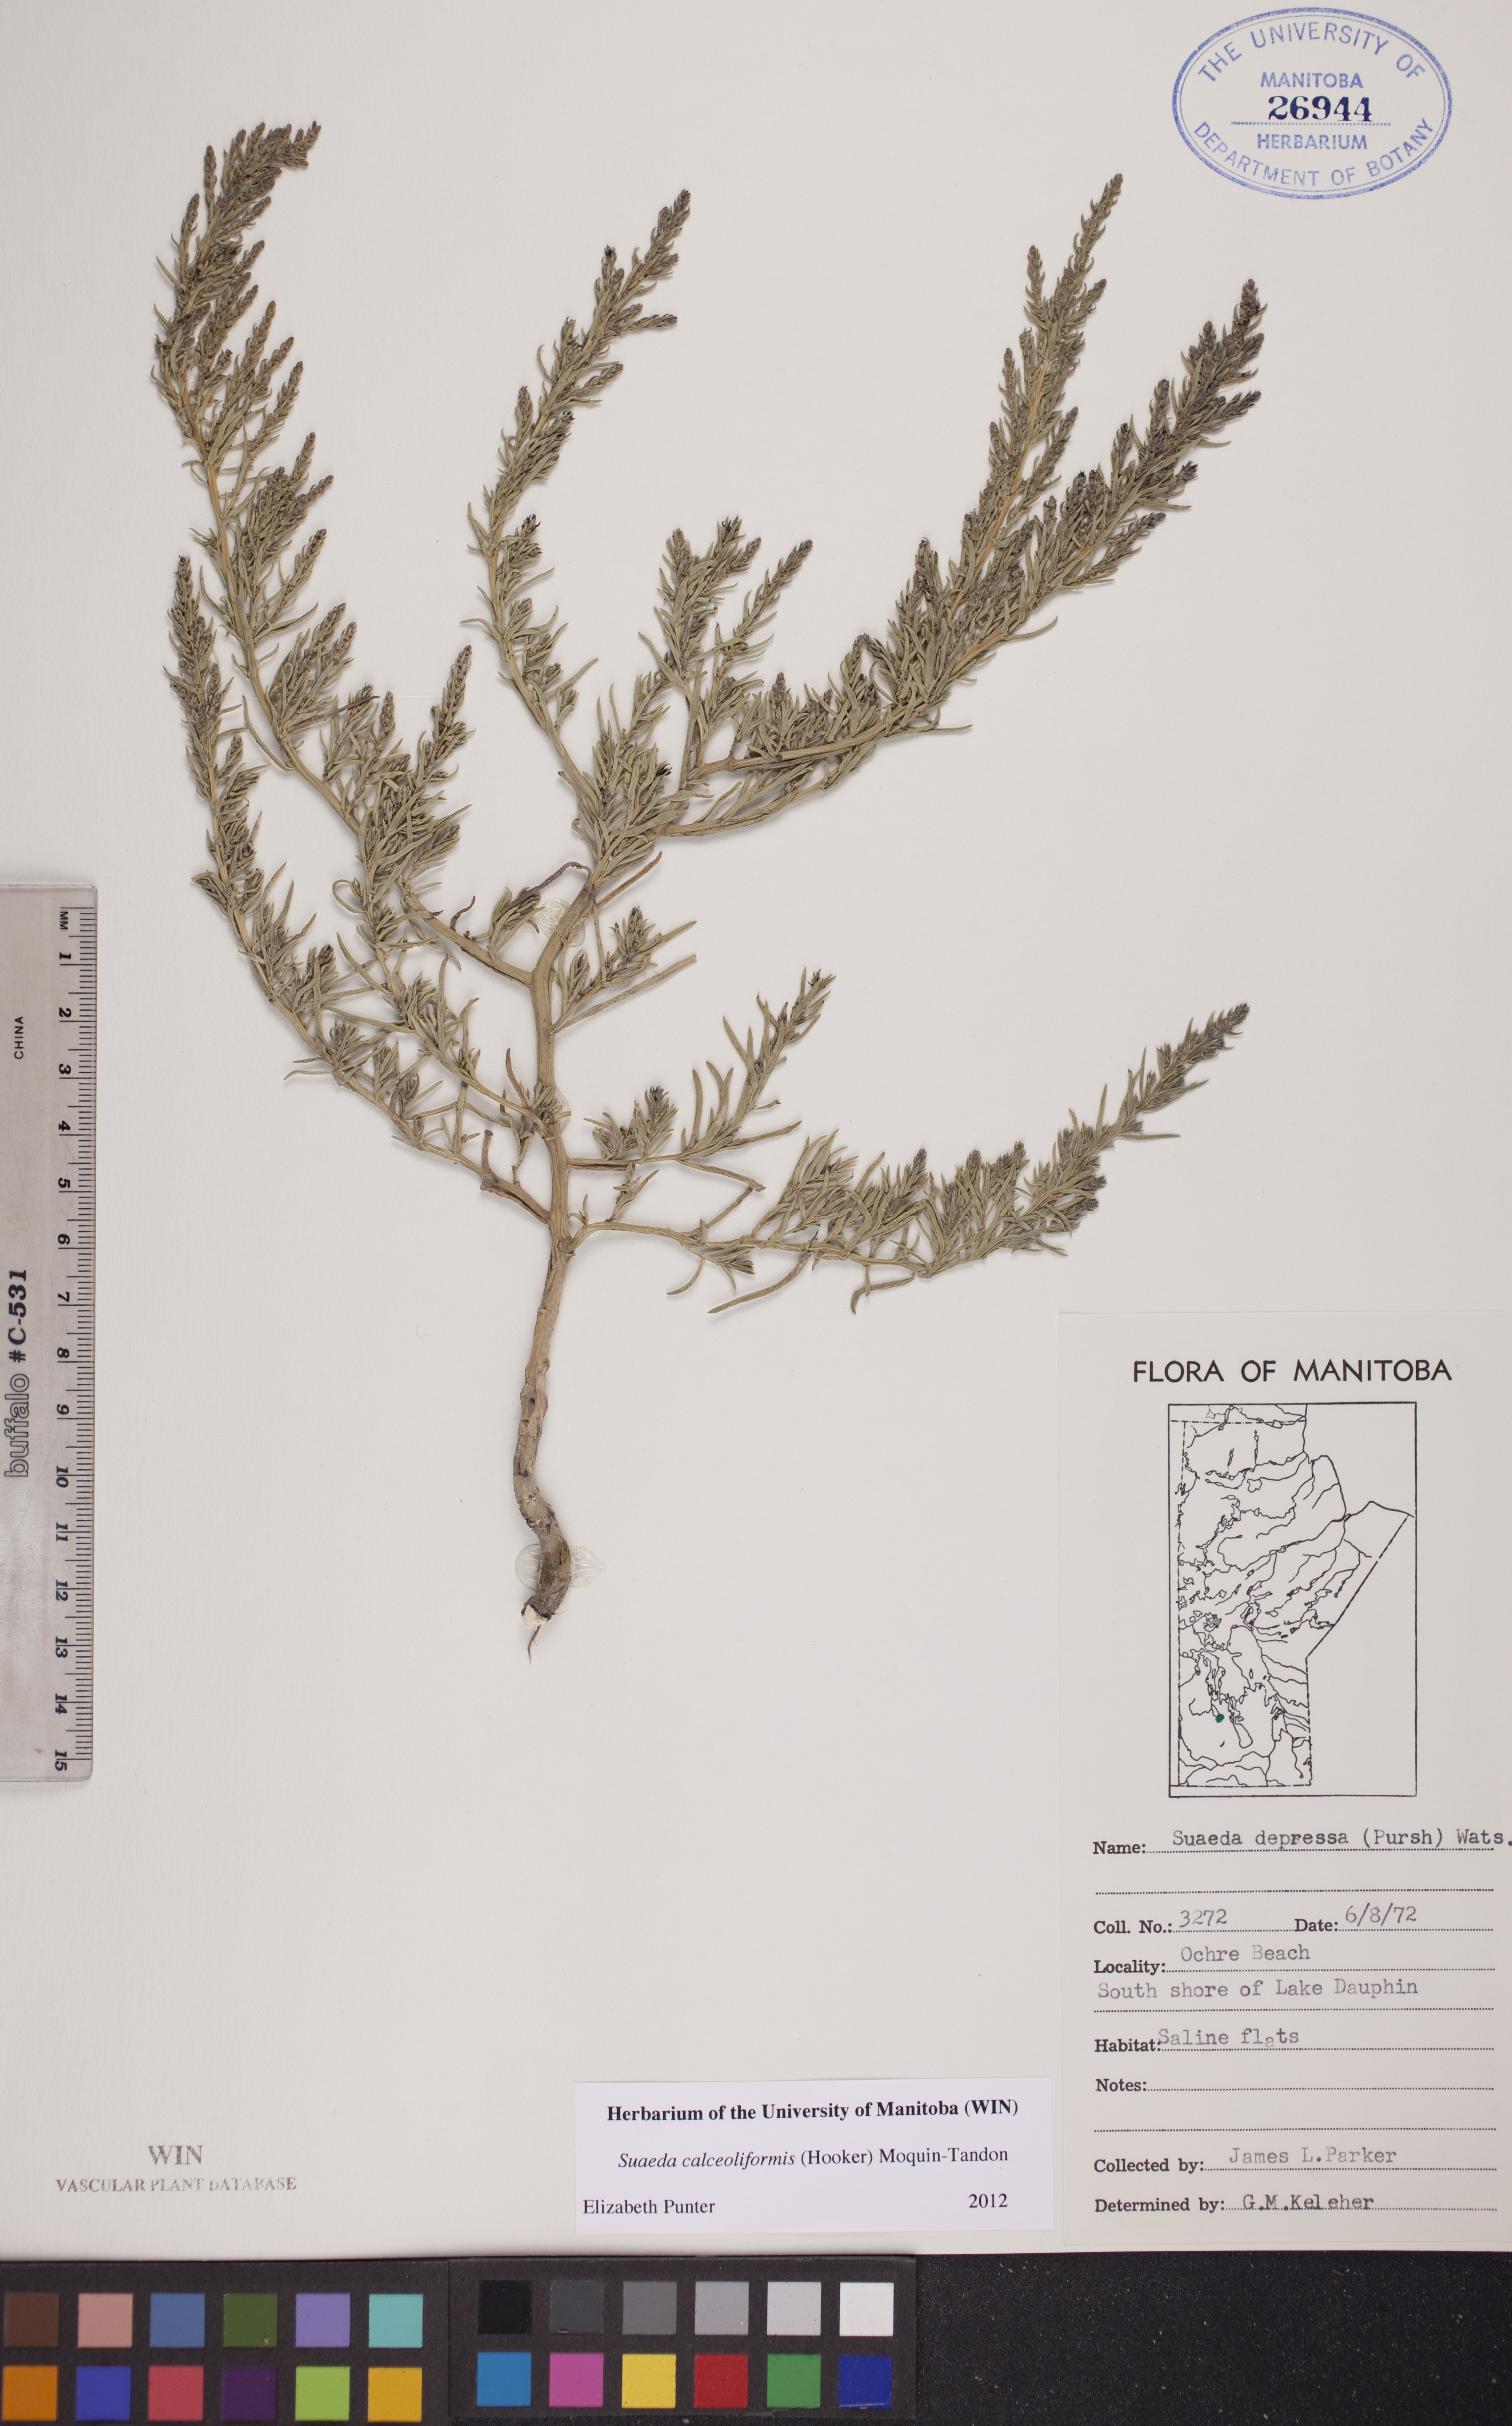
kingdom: Plantae
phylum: Tracheophyta
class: Magnoliopsida
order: Caryophyllales
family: Amaranthaceae
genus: Suaeda
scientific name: Suaeda calceoliformis
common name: Pursh's seepweed
